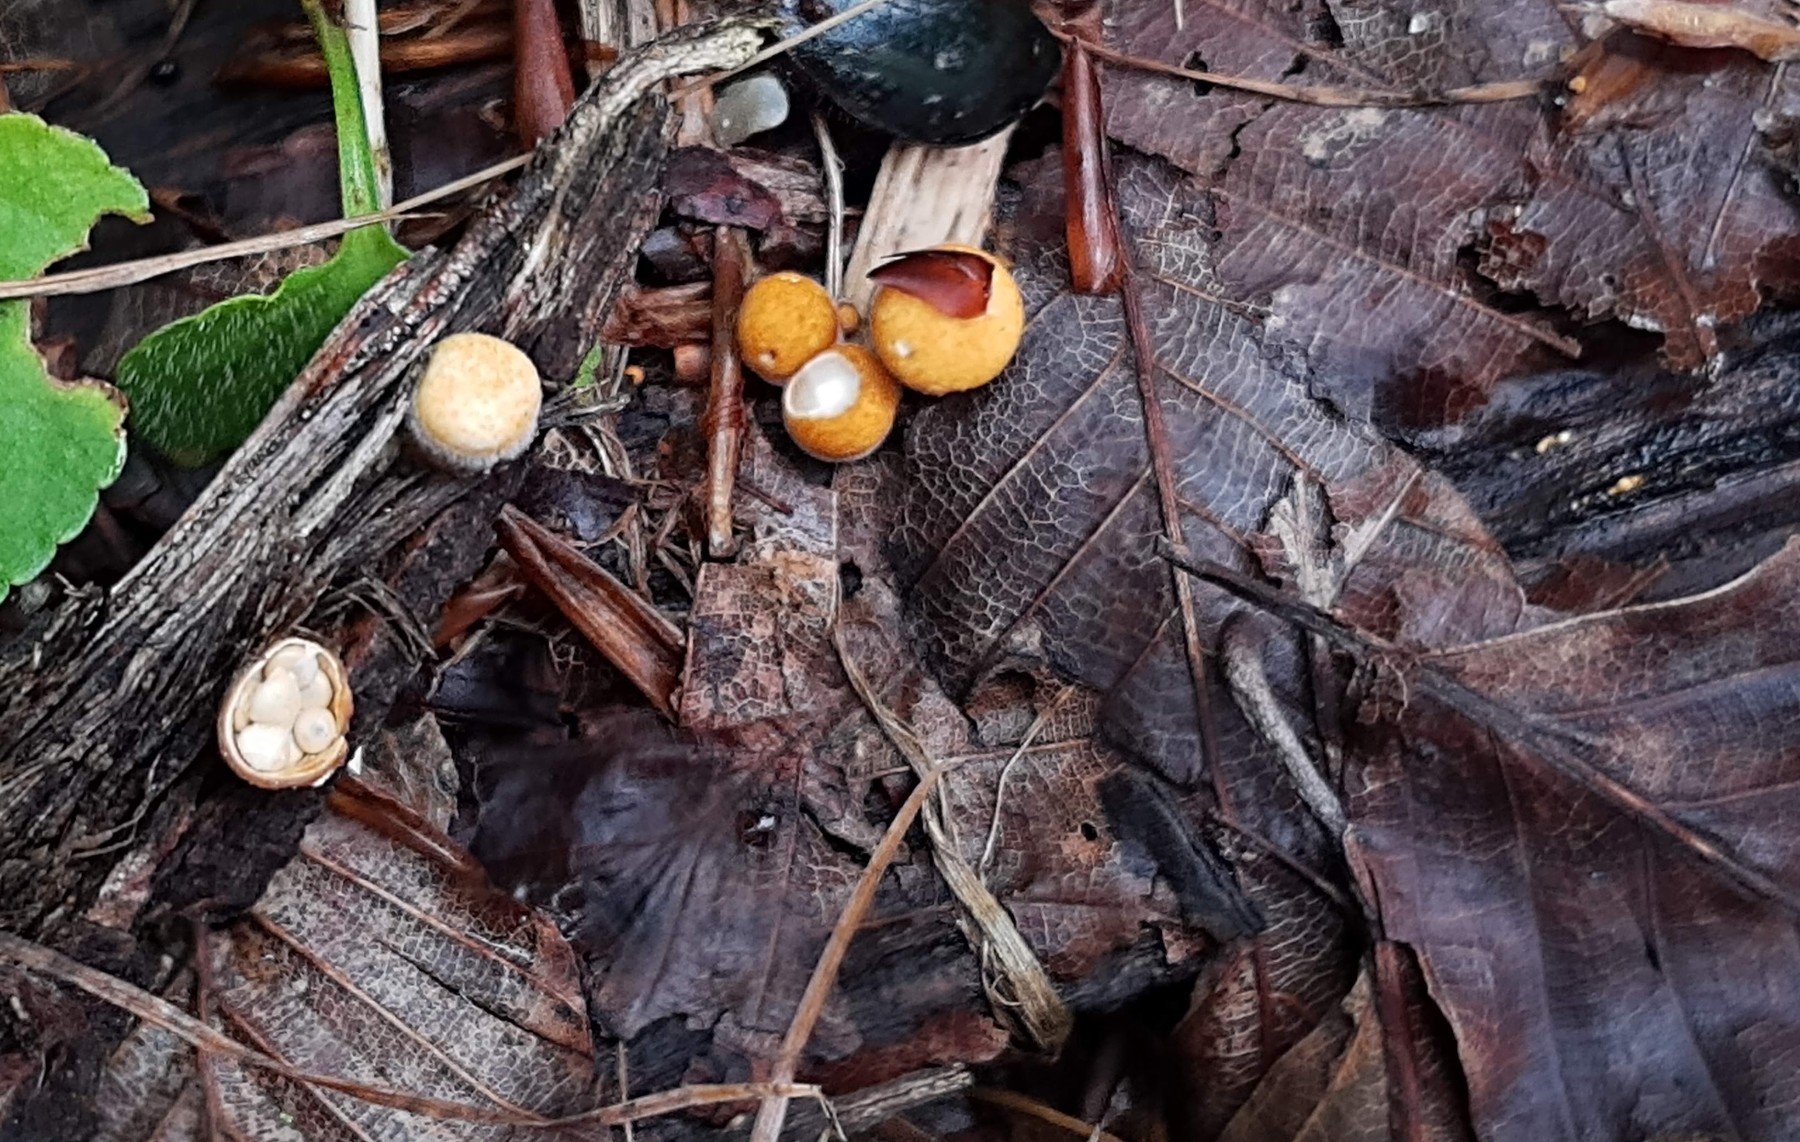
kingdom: Fungi
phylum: Basidiomycota
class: Agaricomycetes
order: Agaricales
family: Nidulariaceae
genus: Crucibulum
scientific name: Crucibulum crucibuliforme
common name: krukkesvamp
